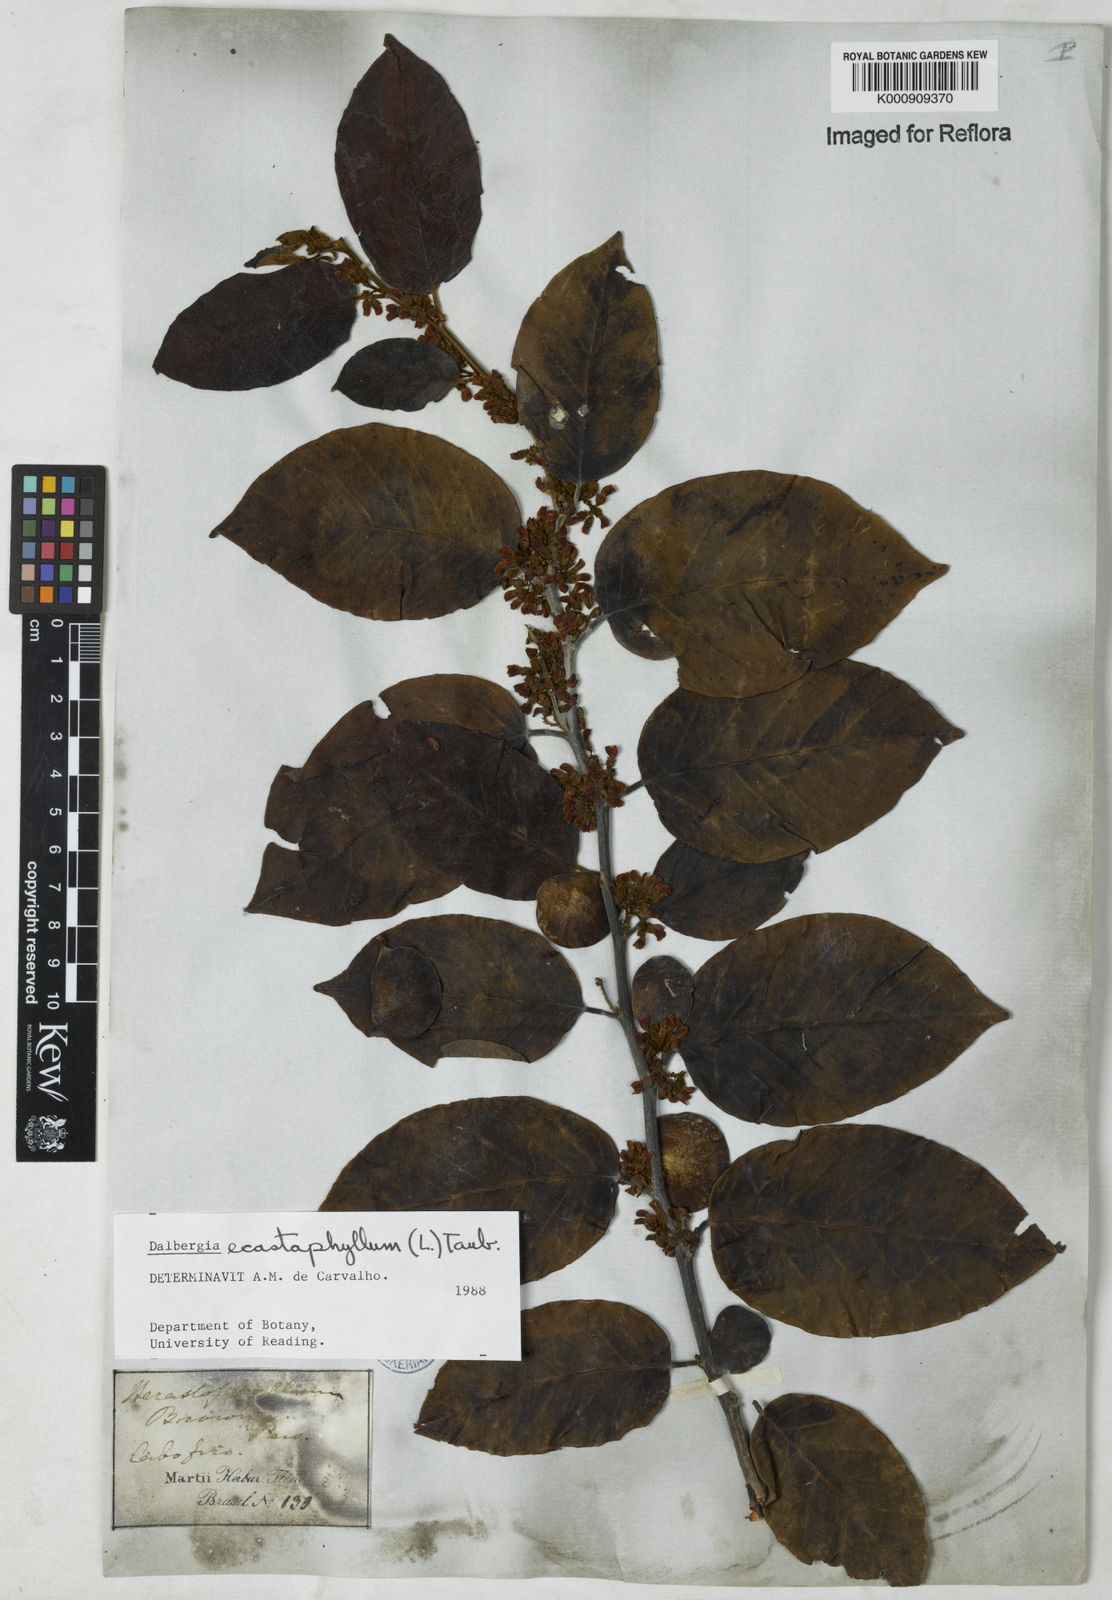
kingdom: Plantae
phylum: Tracheophyta
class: Magnoliopsida
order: Fabales
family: Fabaceae
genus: Dalbergia
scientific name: Dalbergia ecastaphyllum
